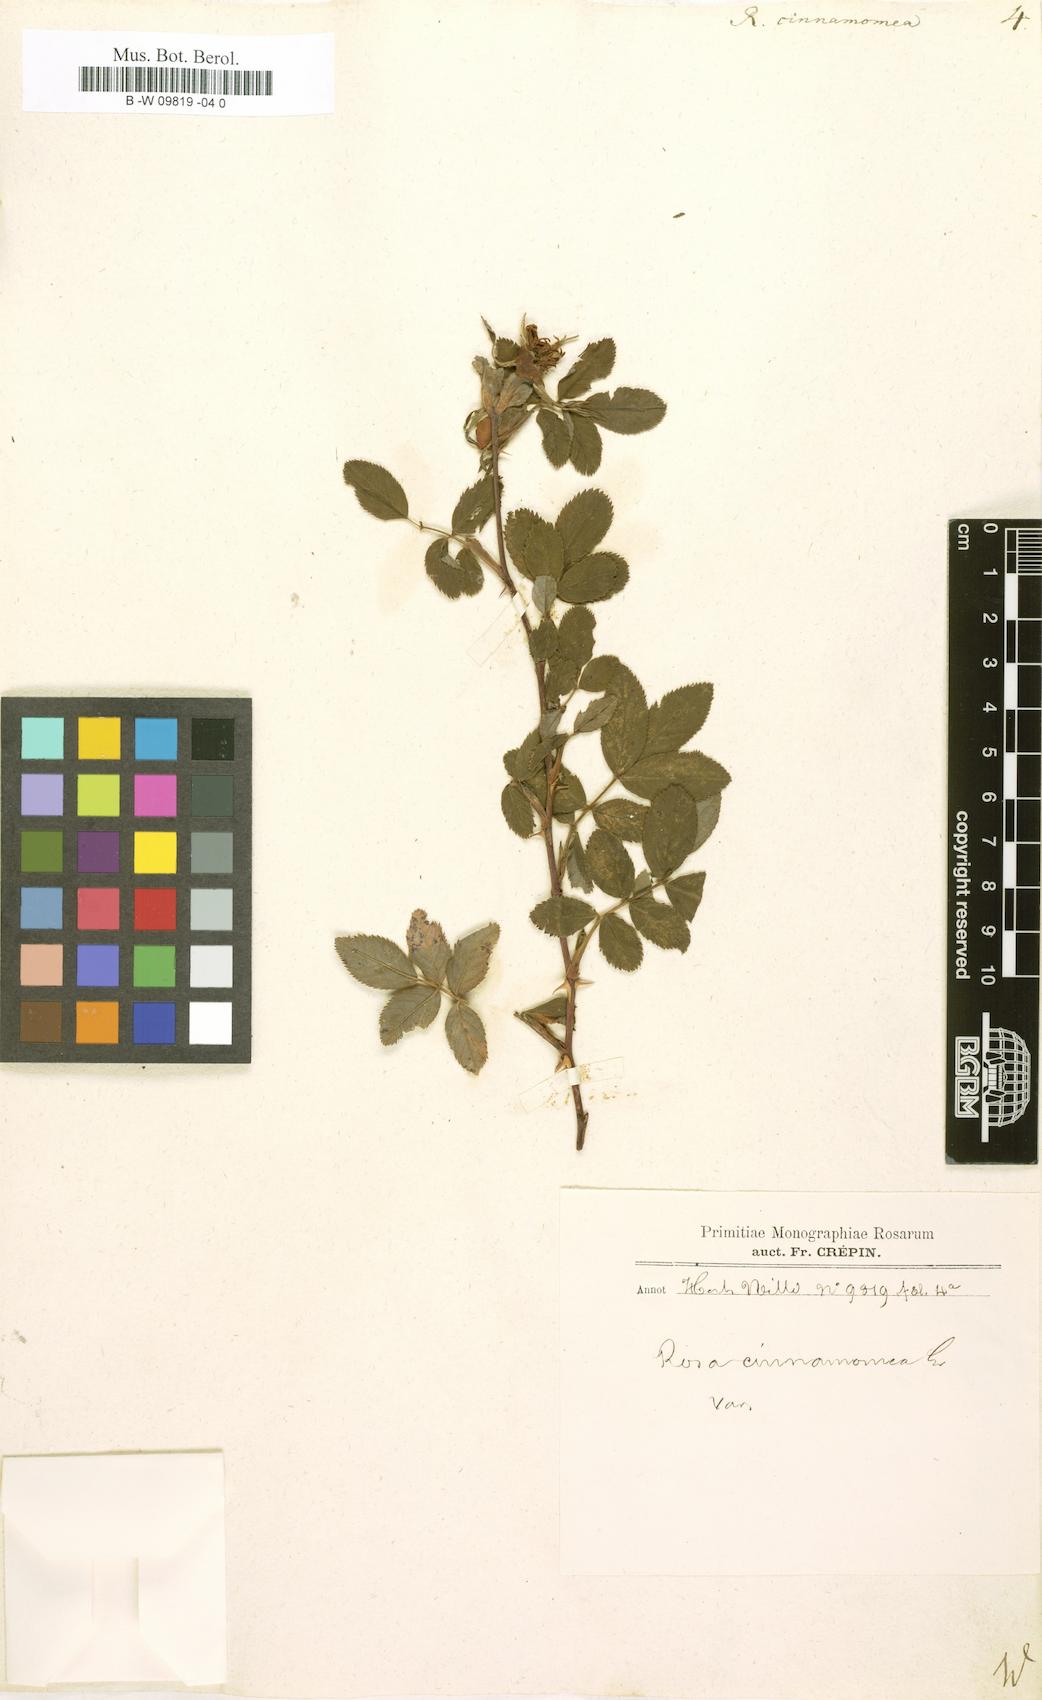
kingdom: Plantae
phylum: Tracheophyta
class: Magnoliopsida
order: Rosales
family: Rosaceae
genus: Rosa
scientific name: Rosa pendulina
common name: Alpine rose
